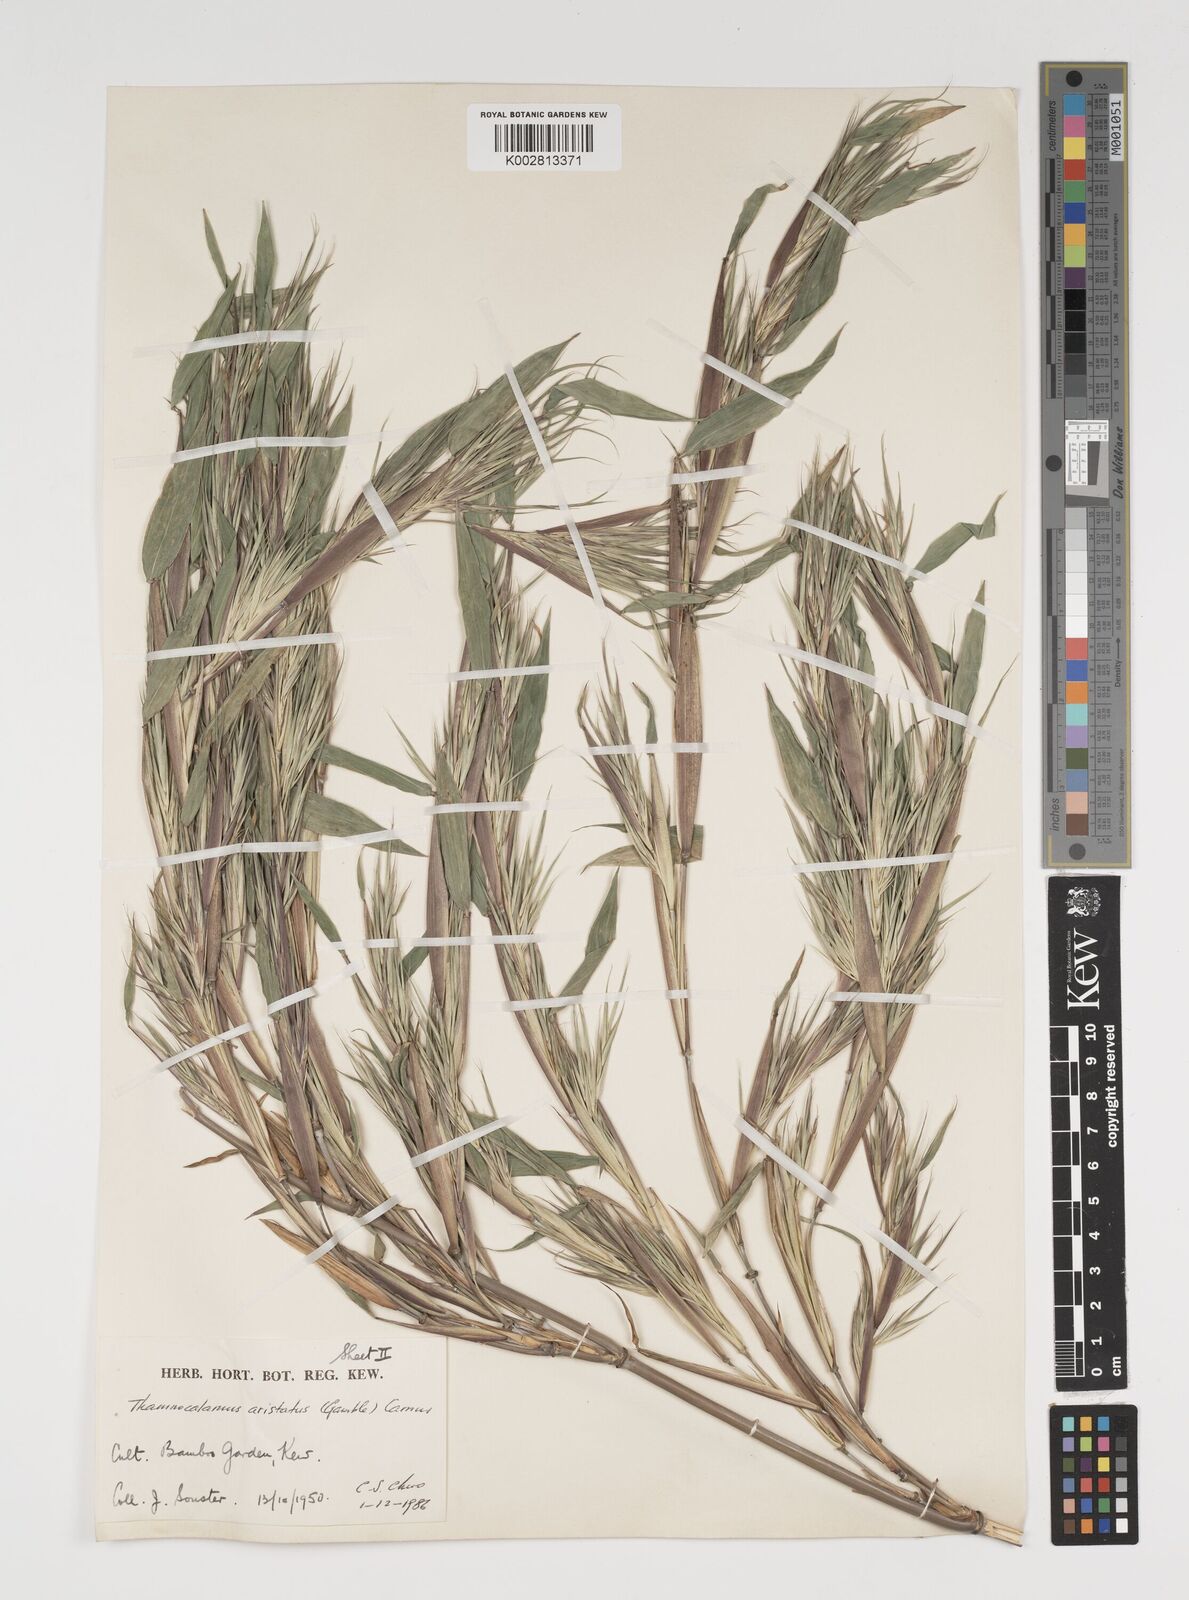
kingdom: Plantae
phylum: Tracheophyta
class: Liliopsida
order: Poales
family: Poaceae
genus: Thamnocalamus
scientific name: Thamnocalamus spathiflorus
